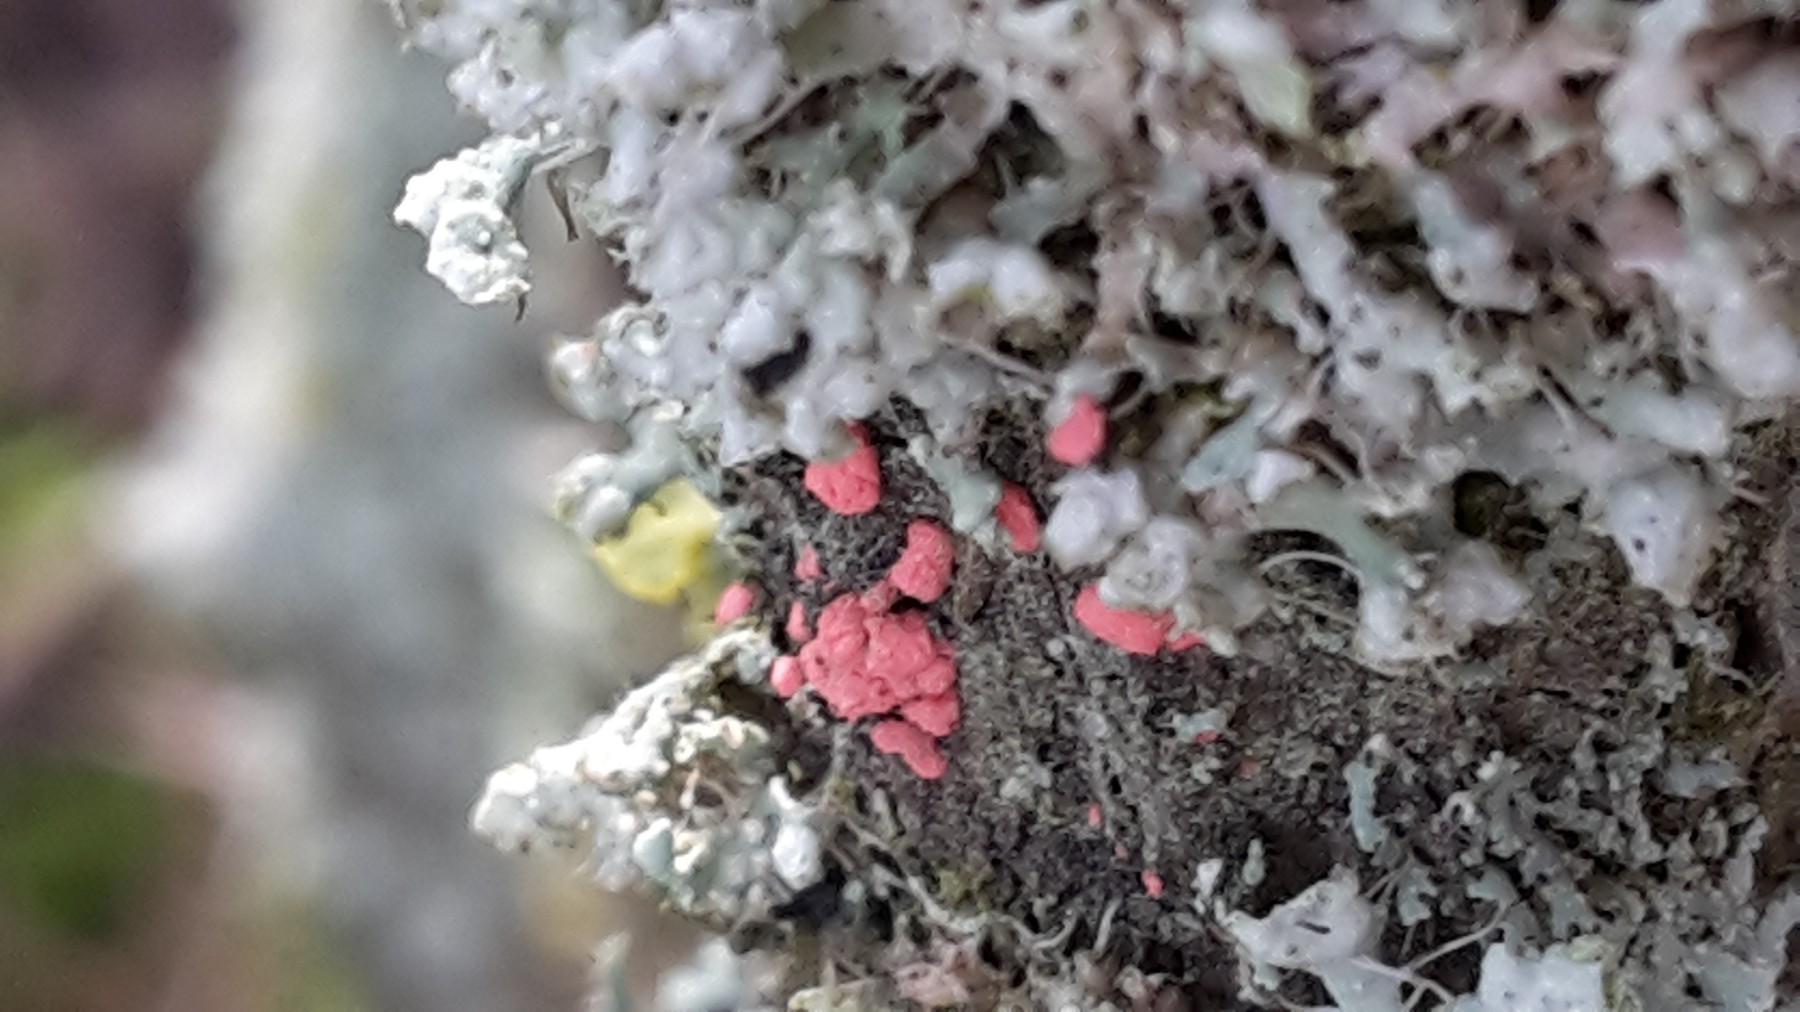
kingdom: Fungi
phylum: Ascomycota
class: Sordariomycetes
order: Hypocreales
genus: Illosporiopsis
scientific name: Illosporiopsis christiansenii
